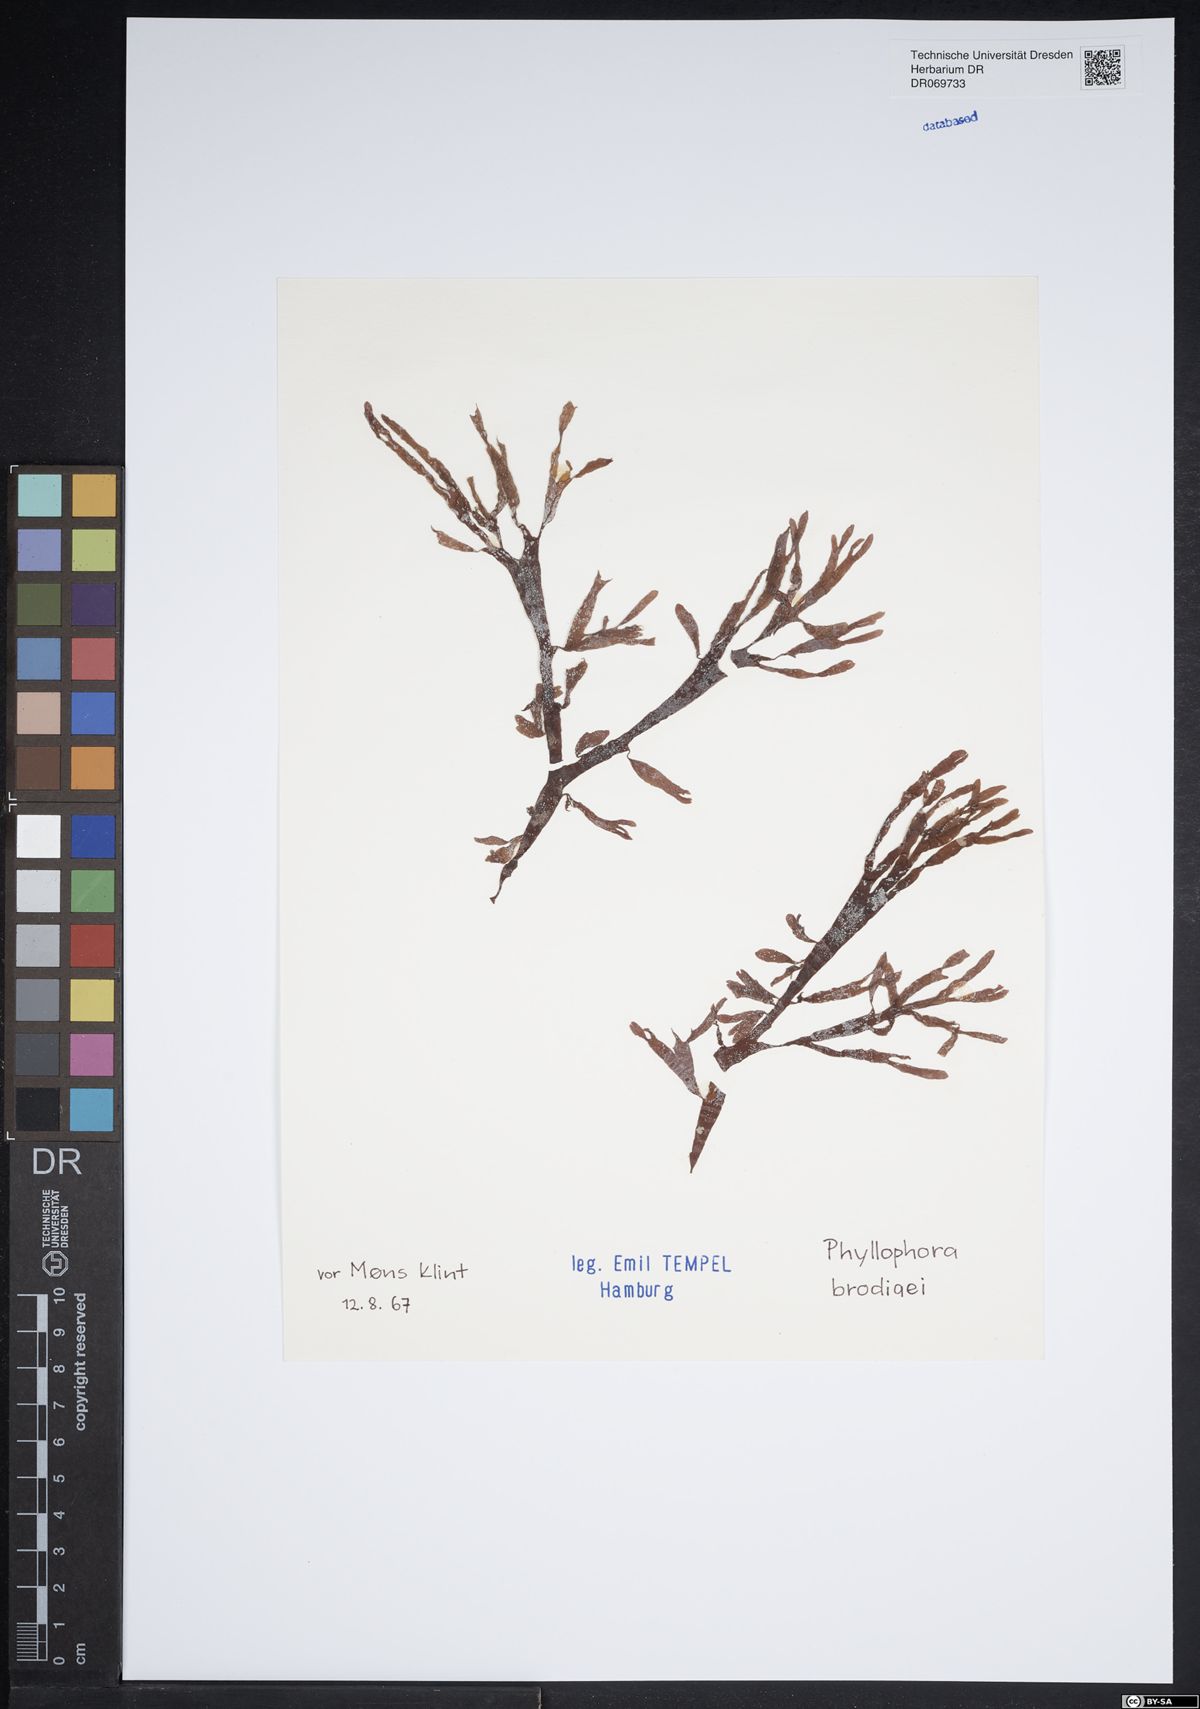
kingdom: Plantae
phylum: Rhodophyta
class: Florideophyceae
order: Gigartinales
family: Phyllophoraceae
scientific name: Phyllophoraceae
